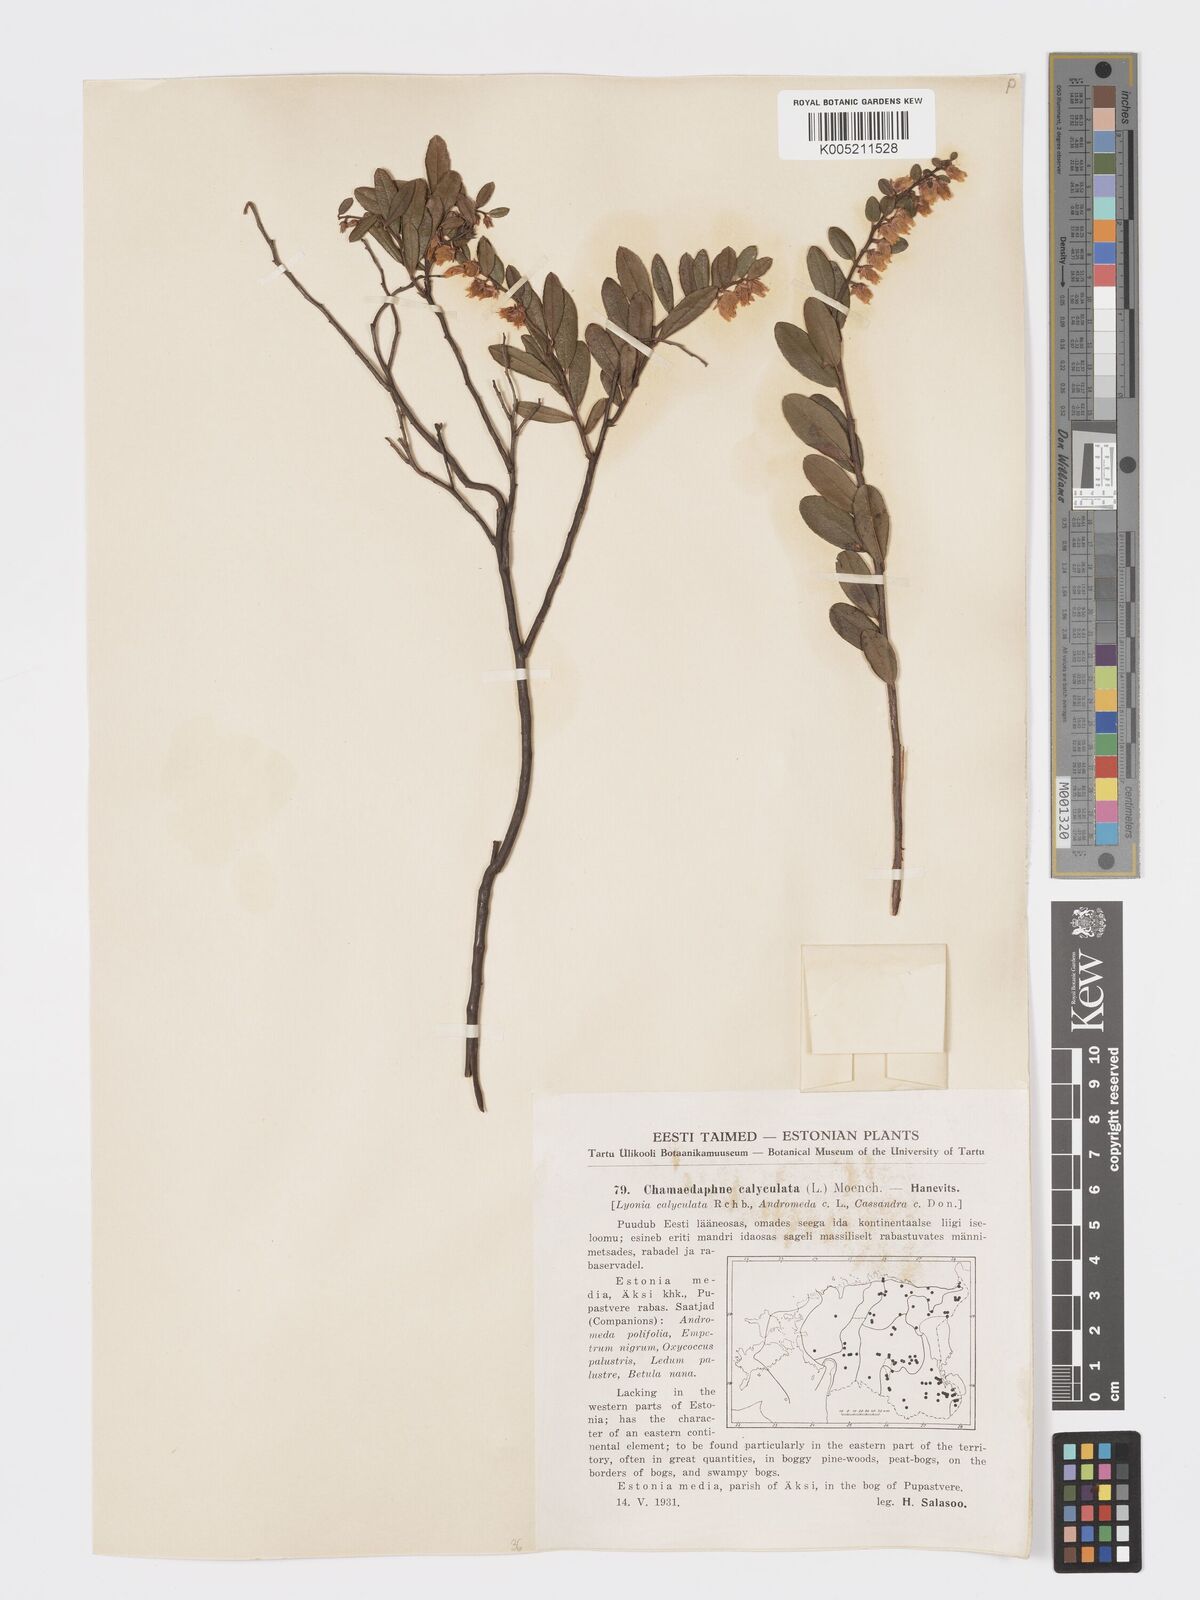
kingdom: Plantae
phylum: Tracheophyta
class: Magnoliopsida
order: Ericales
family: Ericaceae
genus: Chamaedaphne
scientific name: Chamaedaphne calyculata
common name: Leatherleaf
